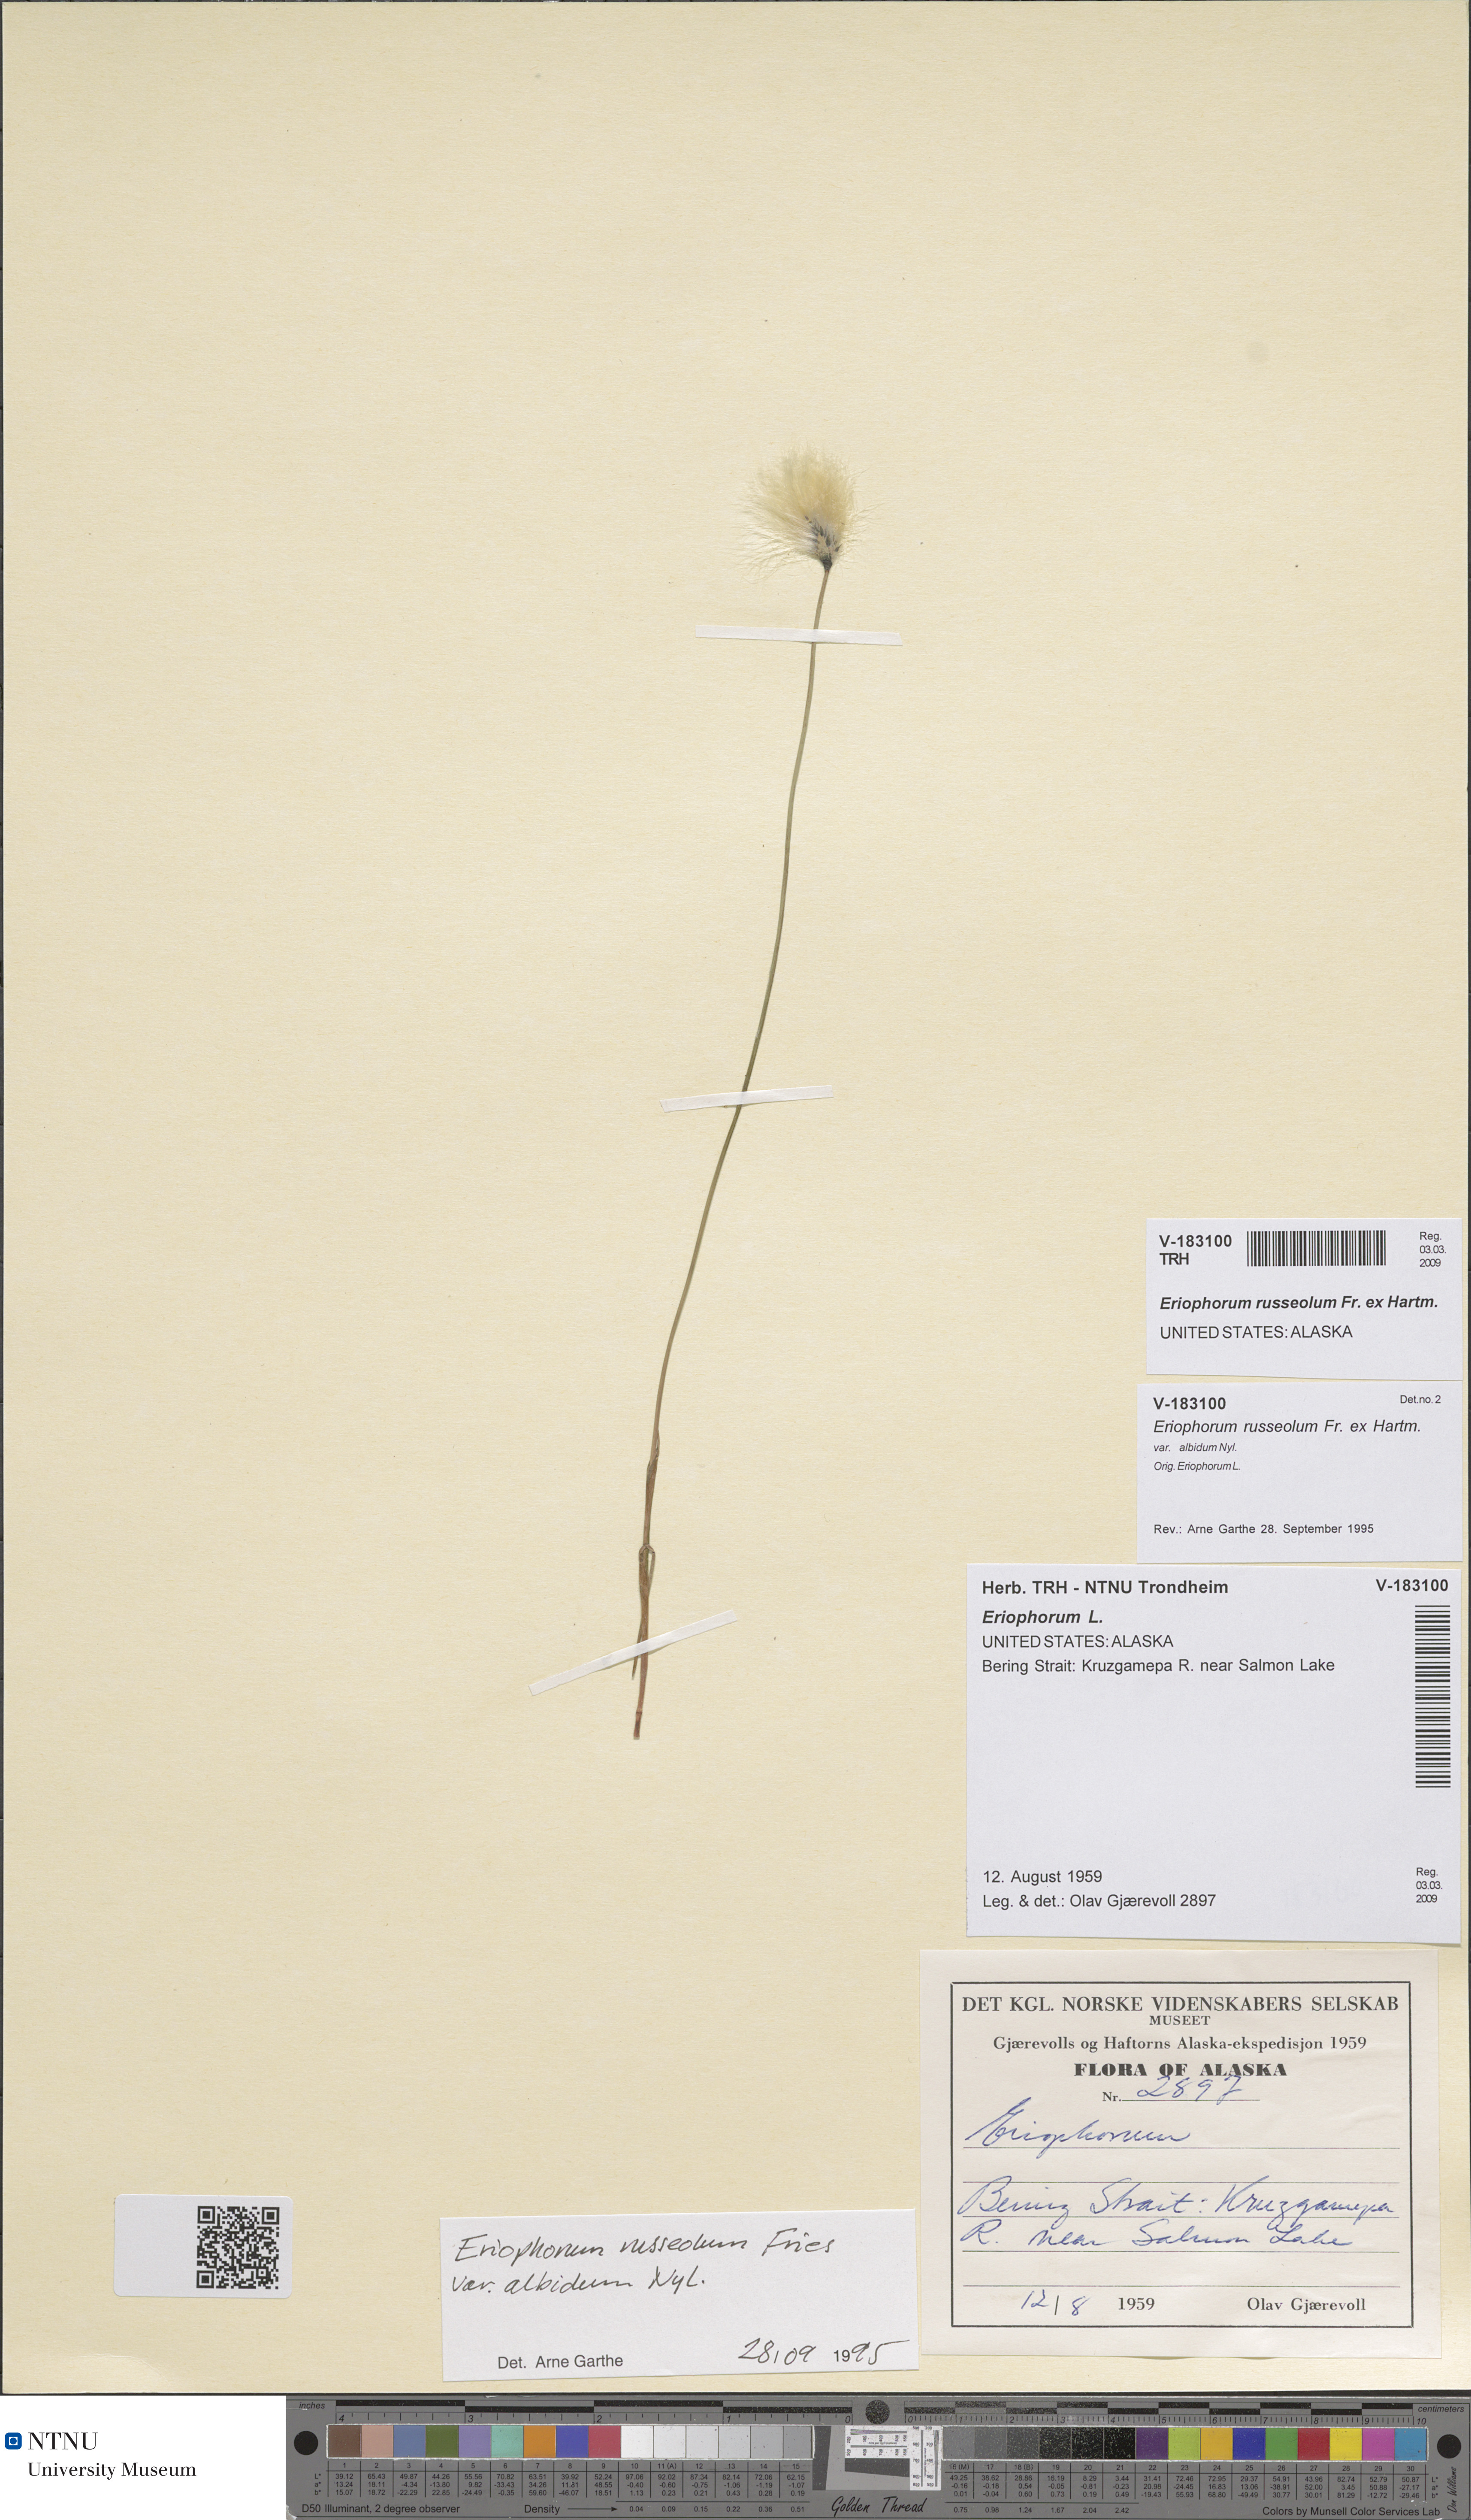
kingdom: Plantae
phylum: Tracheophyta
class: Liliopsida
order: Poales
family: Cyperaceae
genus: Eriophorum
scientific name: Eriophorum russeolum
